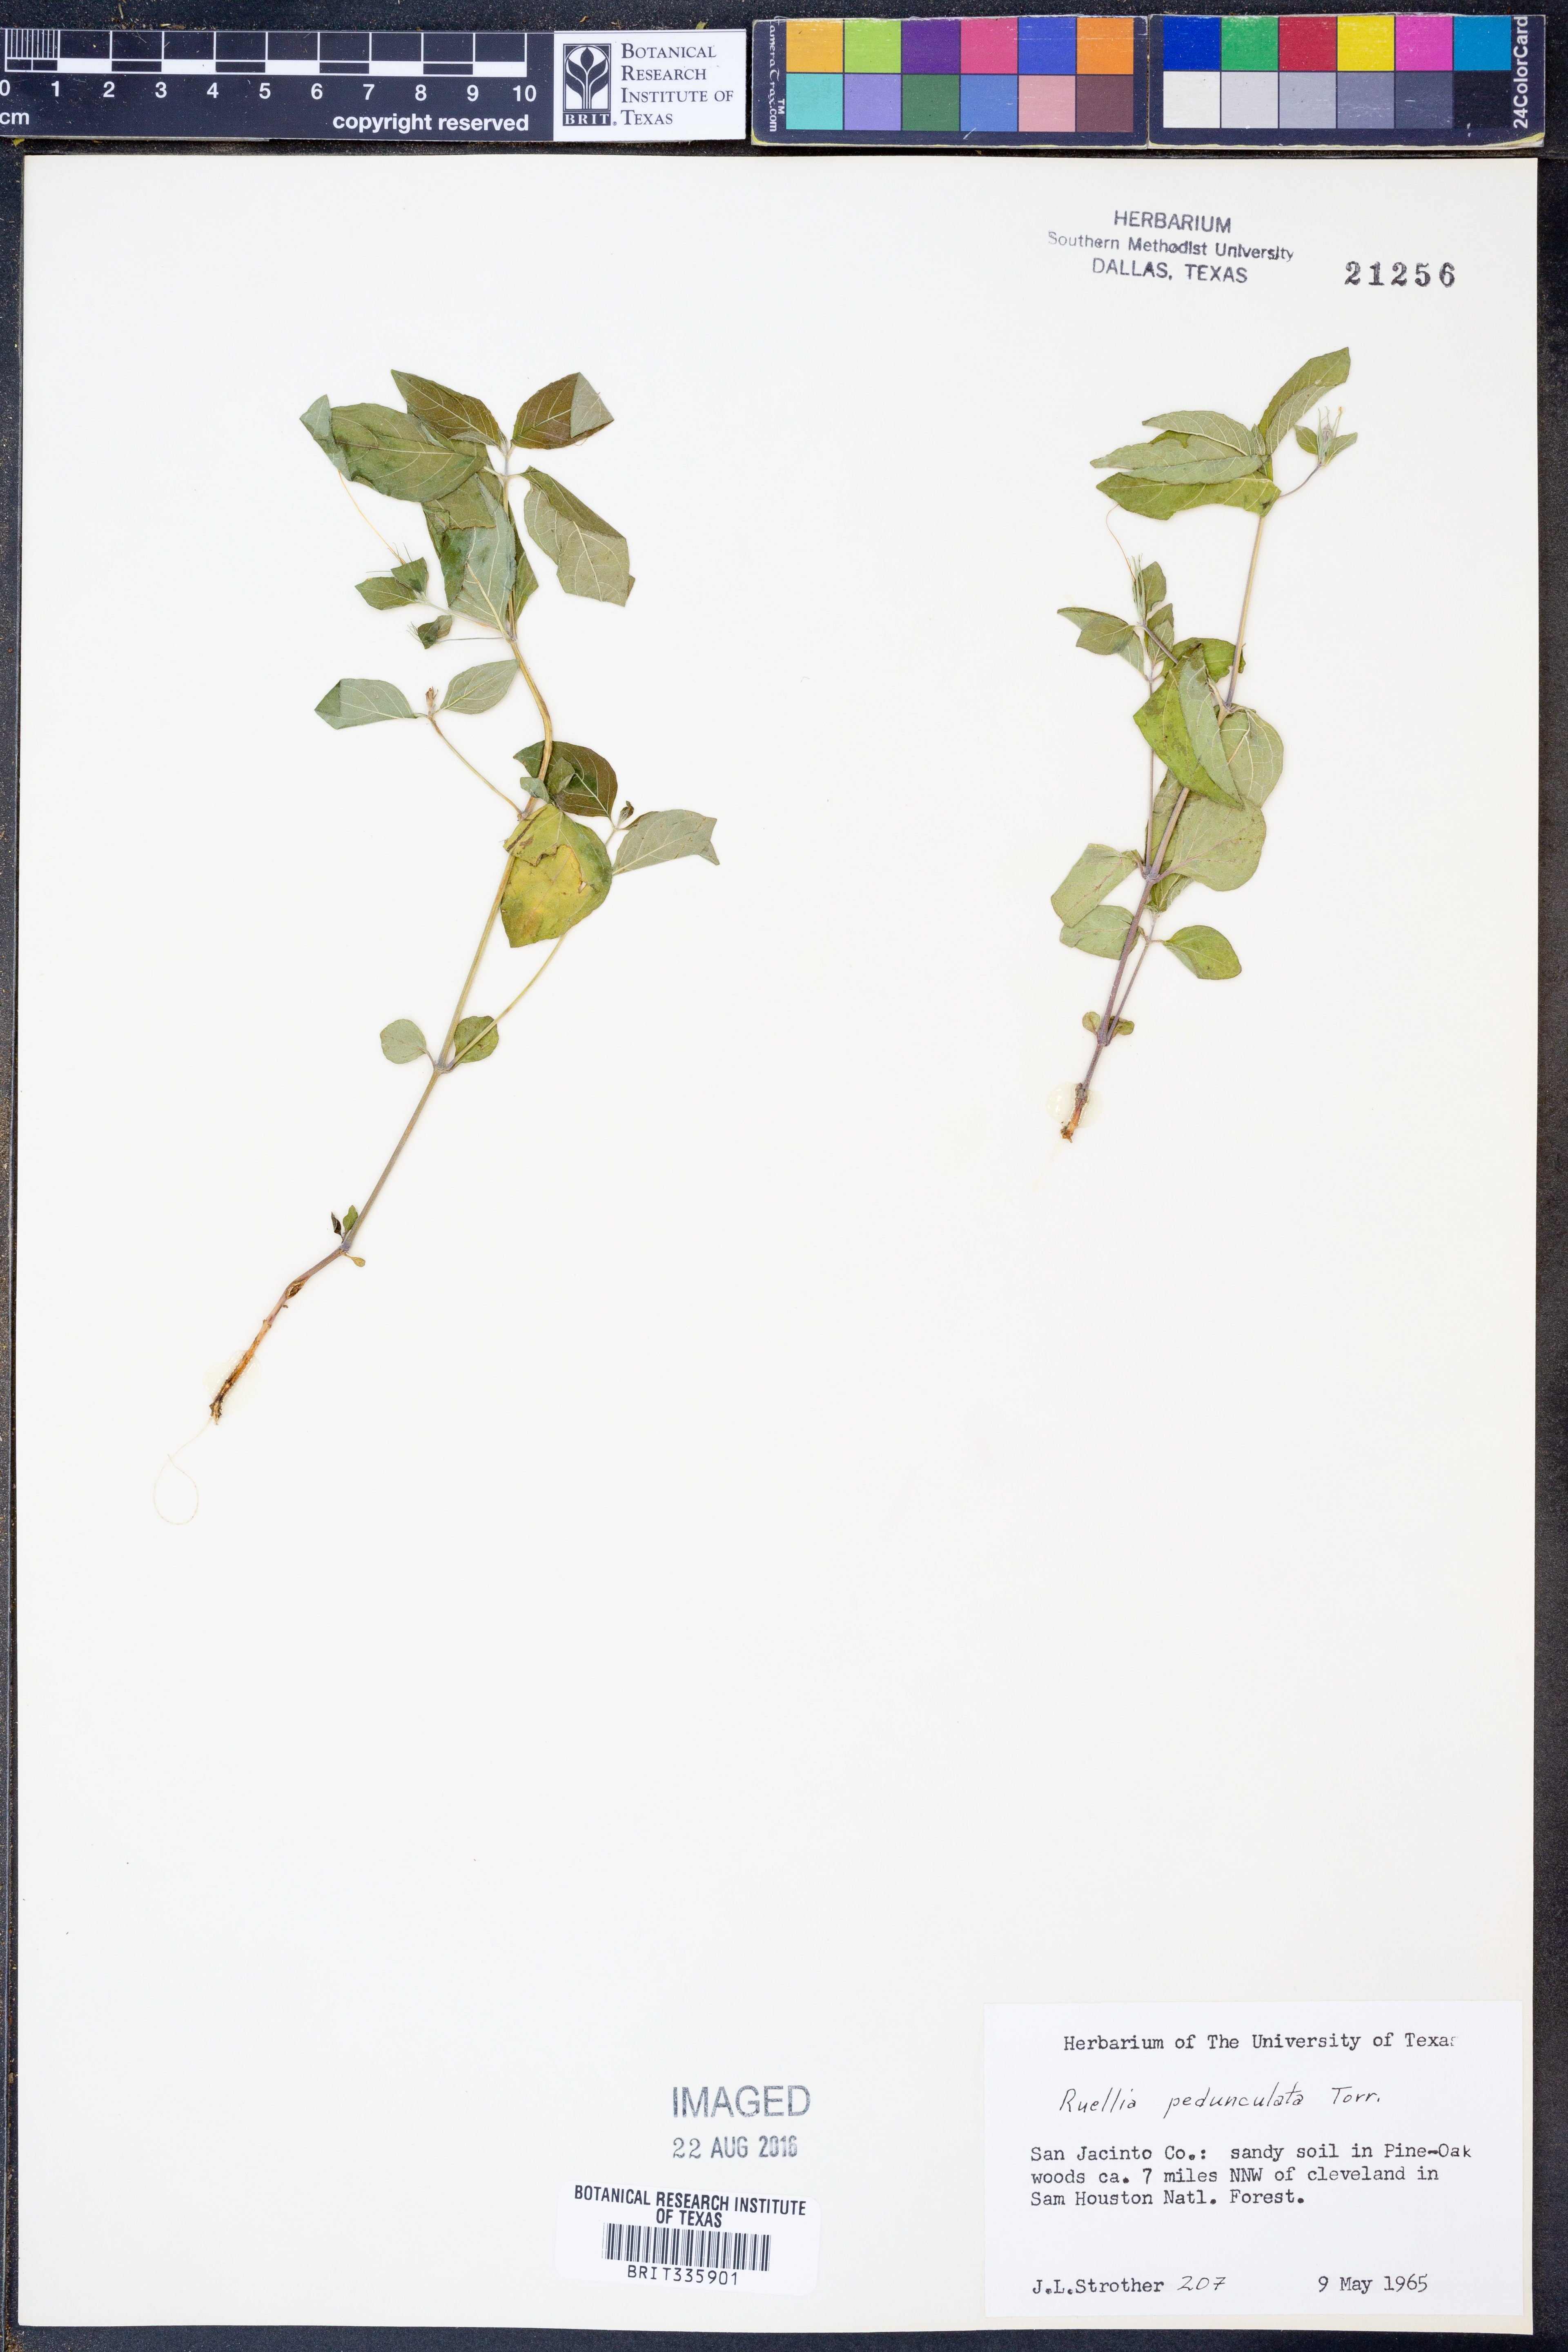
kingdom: Plantae
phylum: Tracheophyta
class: Magnoliopsida
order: Lamiales
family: Acanthaceae
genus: Ruellia
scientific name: Ruellia pedunculata
